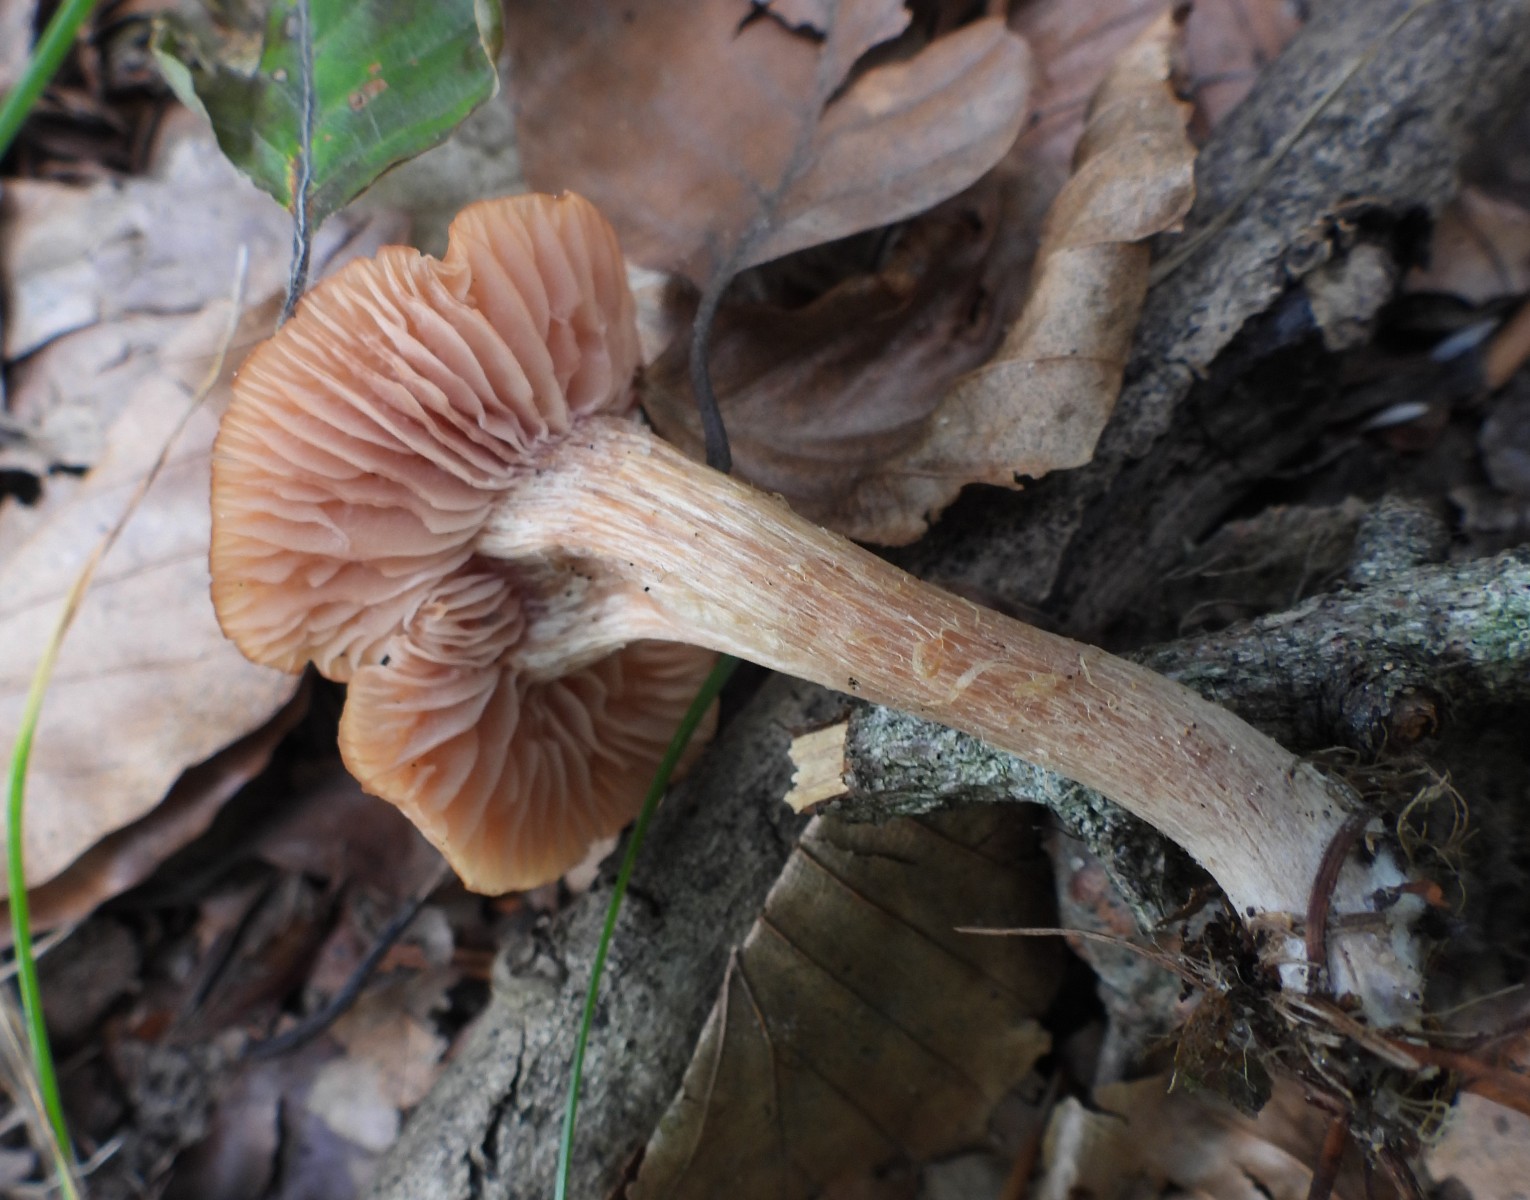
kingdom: Fungi
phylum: Basidiomycota
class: Agaricomycetes
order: Agaricales
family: Hydnangiaceae
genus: Laccaria
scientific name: Laccaria laccata
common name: rød ametysthat
